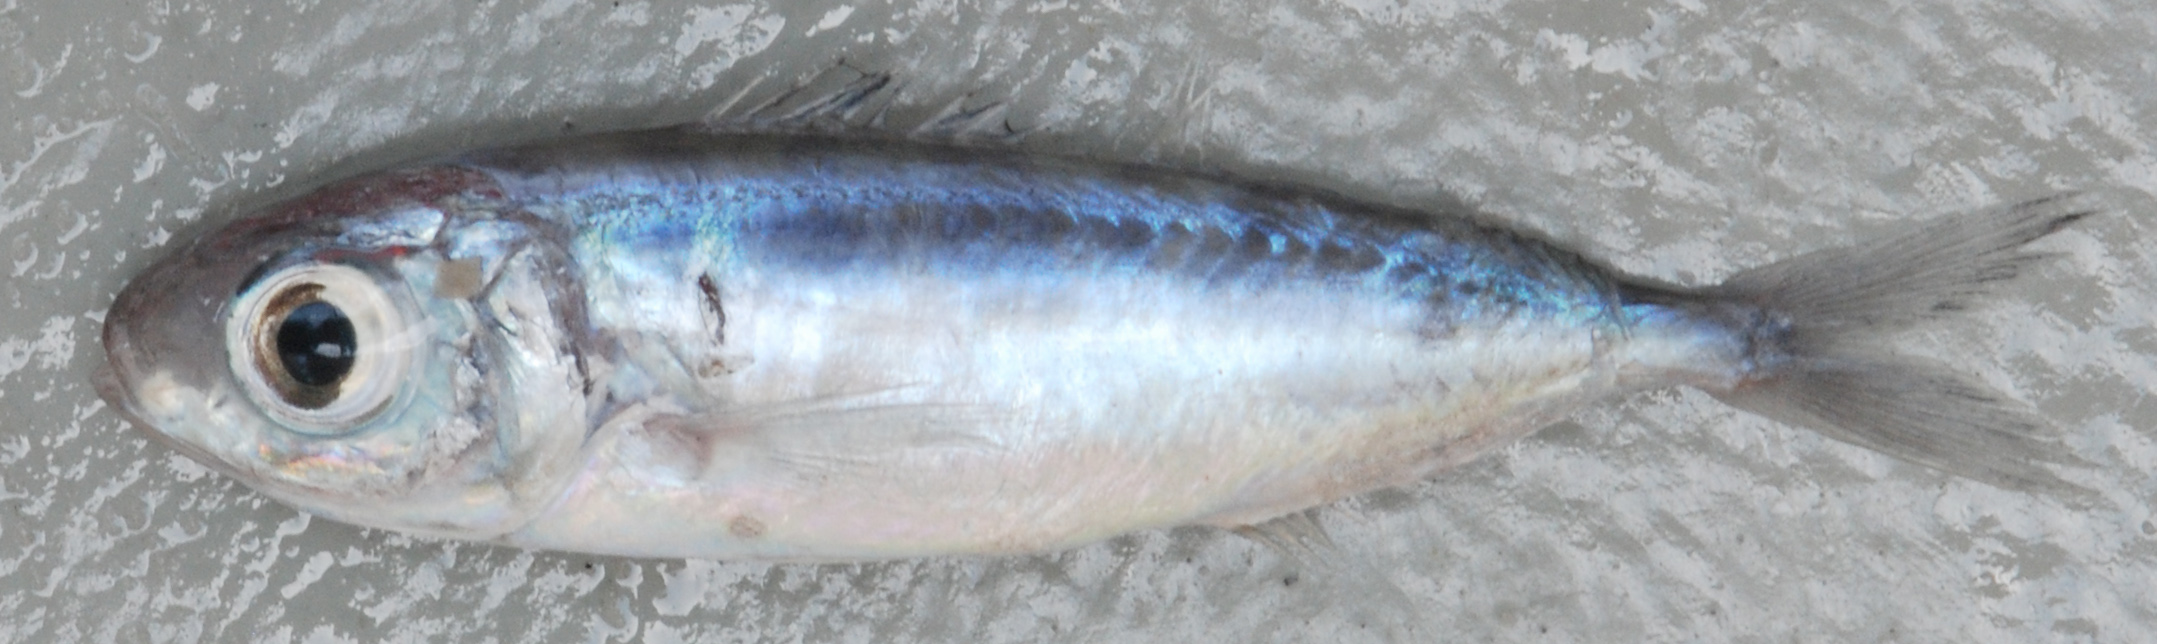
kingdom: Animalia
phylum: Chordata
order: Perciformes
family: Ariommatidae
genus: Ariomma
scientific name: Ariomma melanum
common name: Brown driftfish
